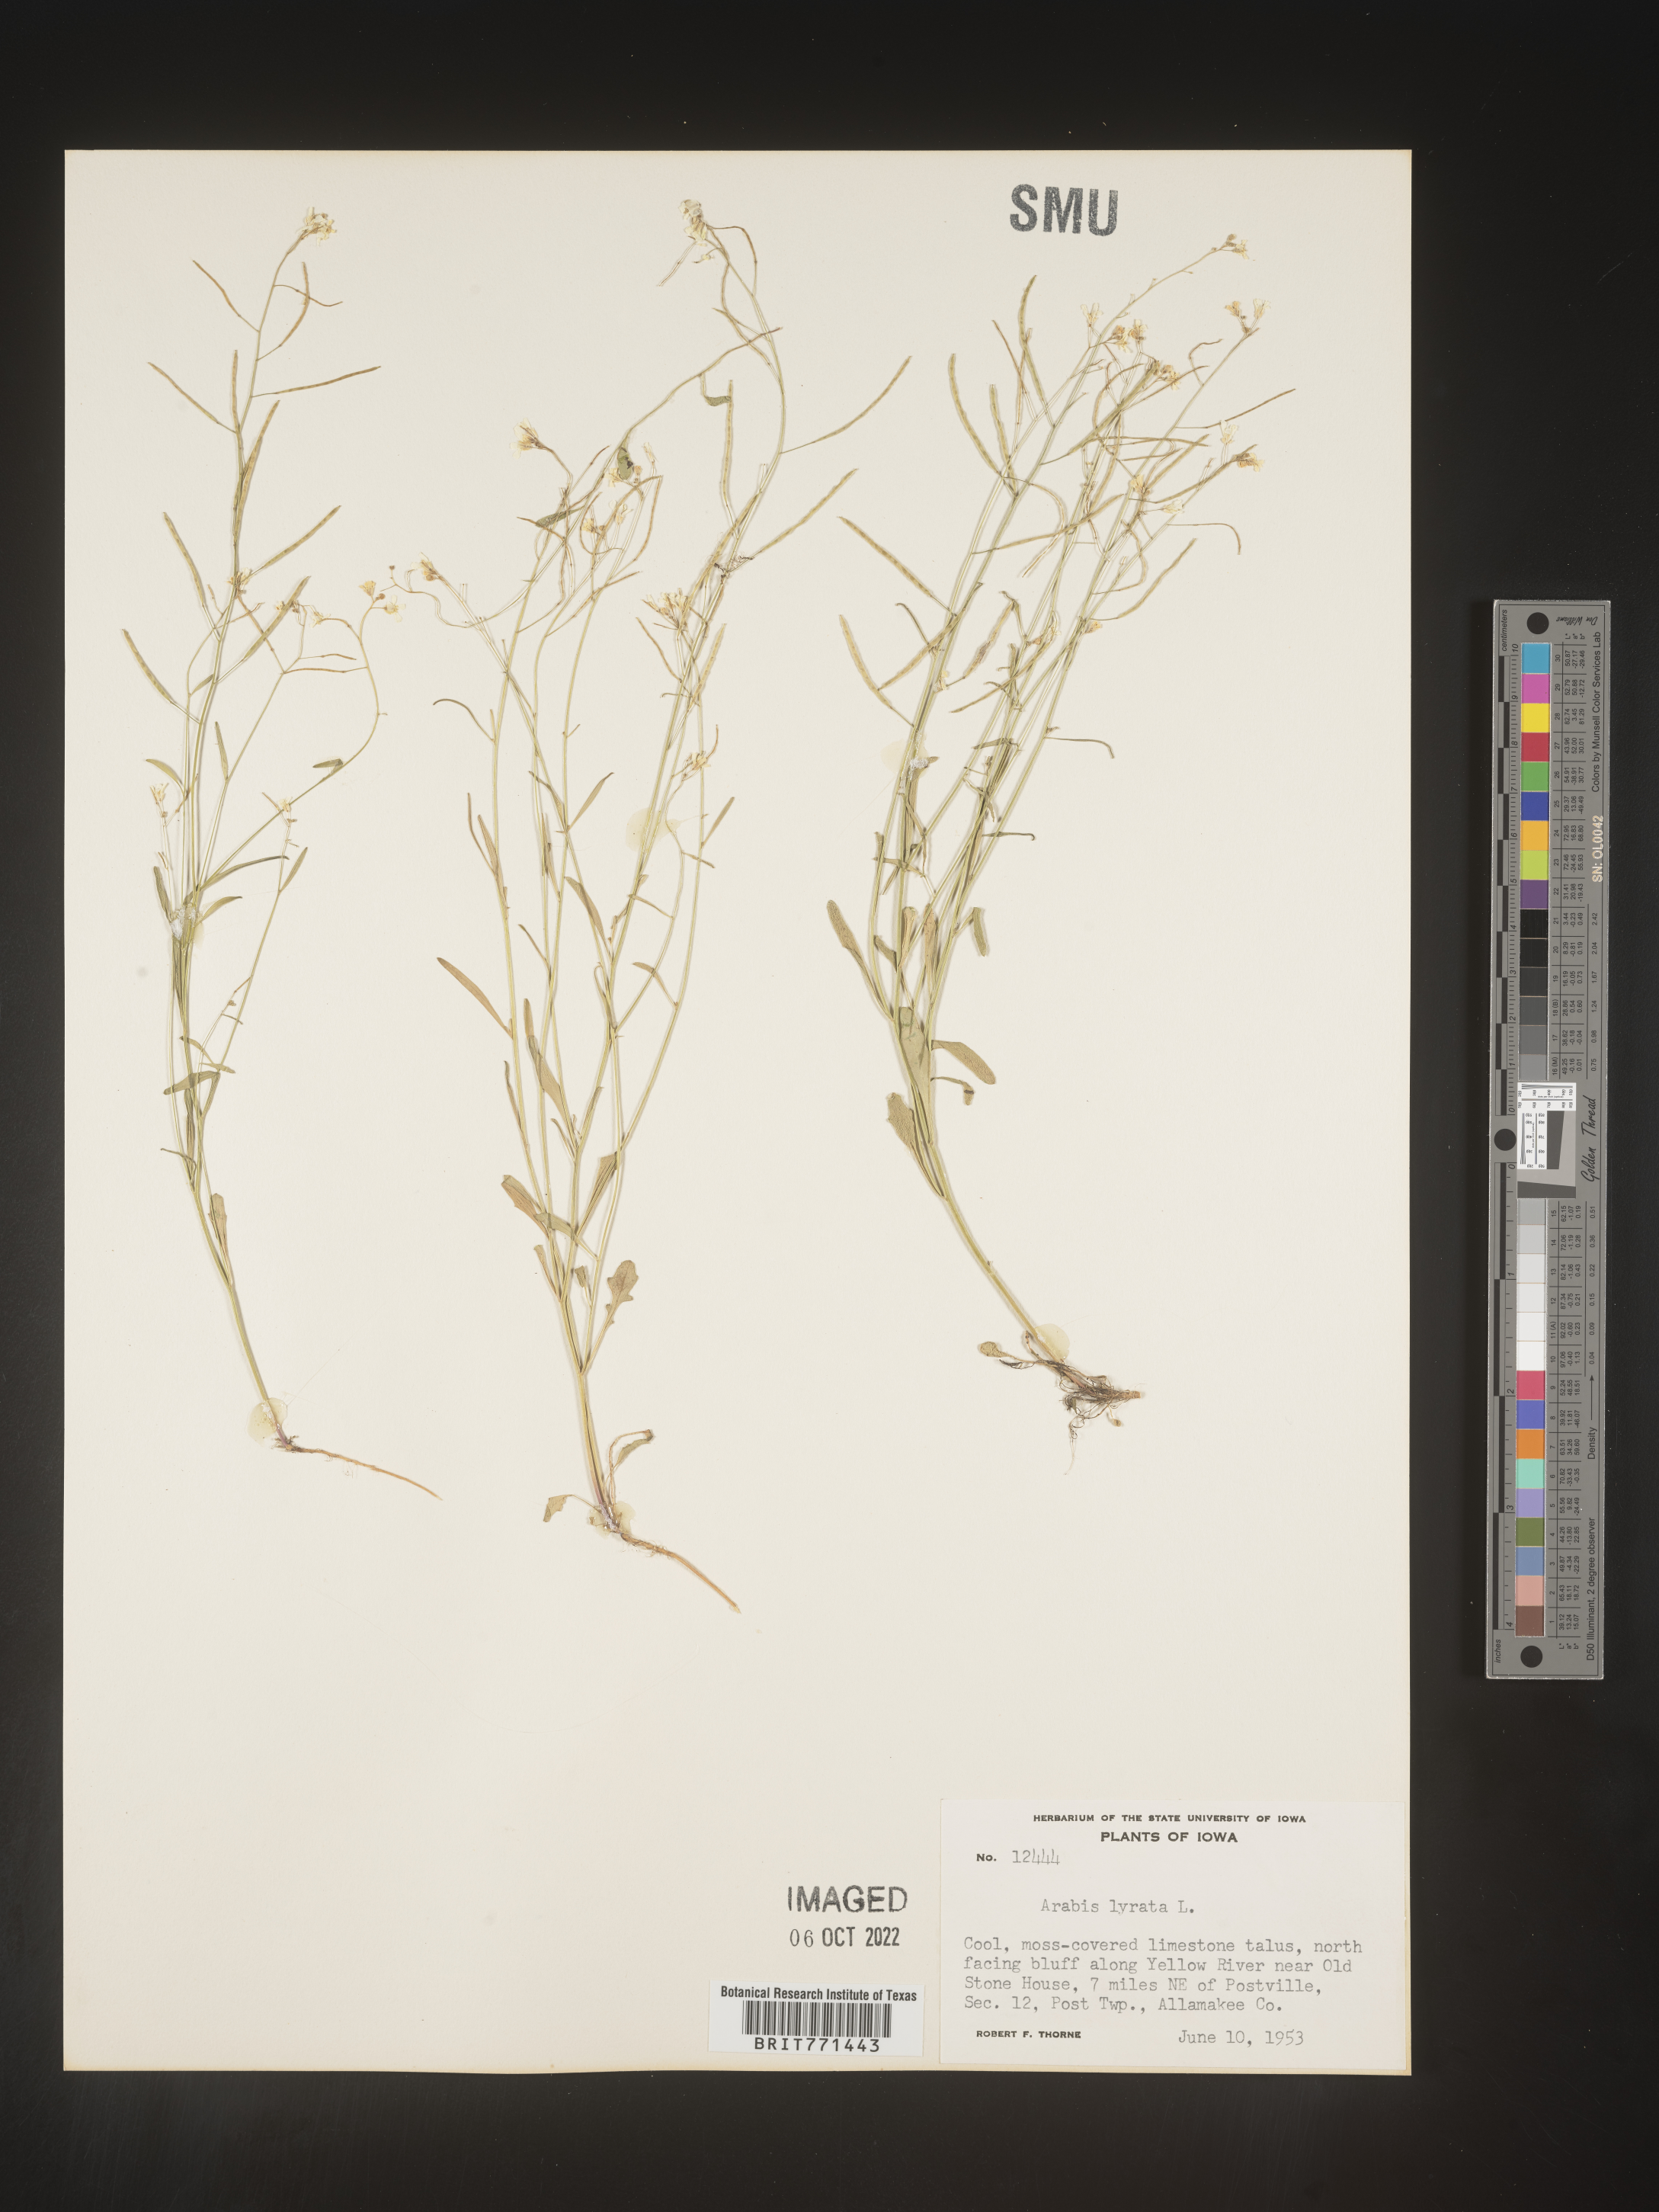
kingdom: Plantae
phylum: Tracheophyta
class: Magnoliopsida
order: Brassicales
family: Brassicaceae
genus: Arabidopsis
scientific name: Arabidopsis lyrata
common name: Lyrate rockcress
